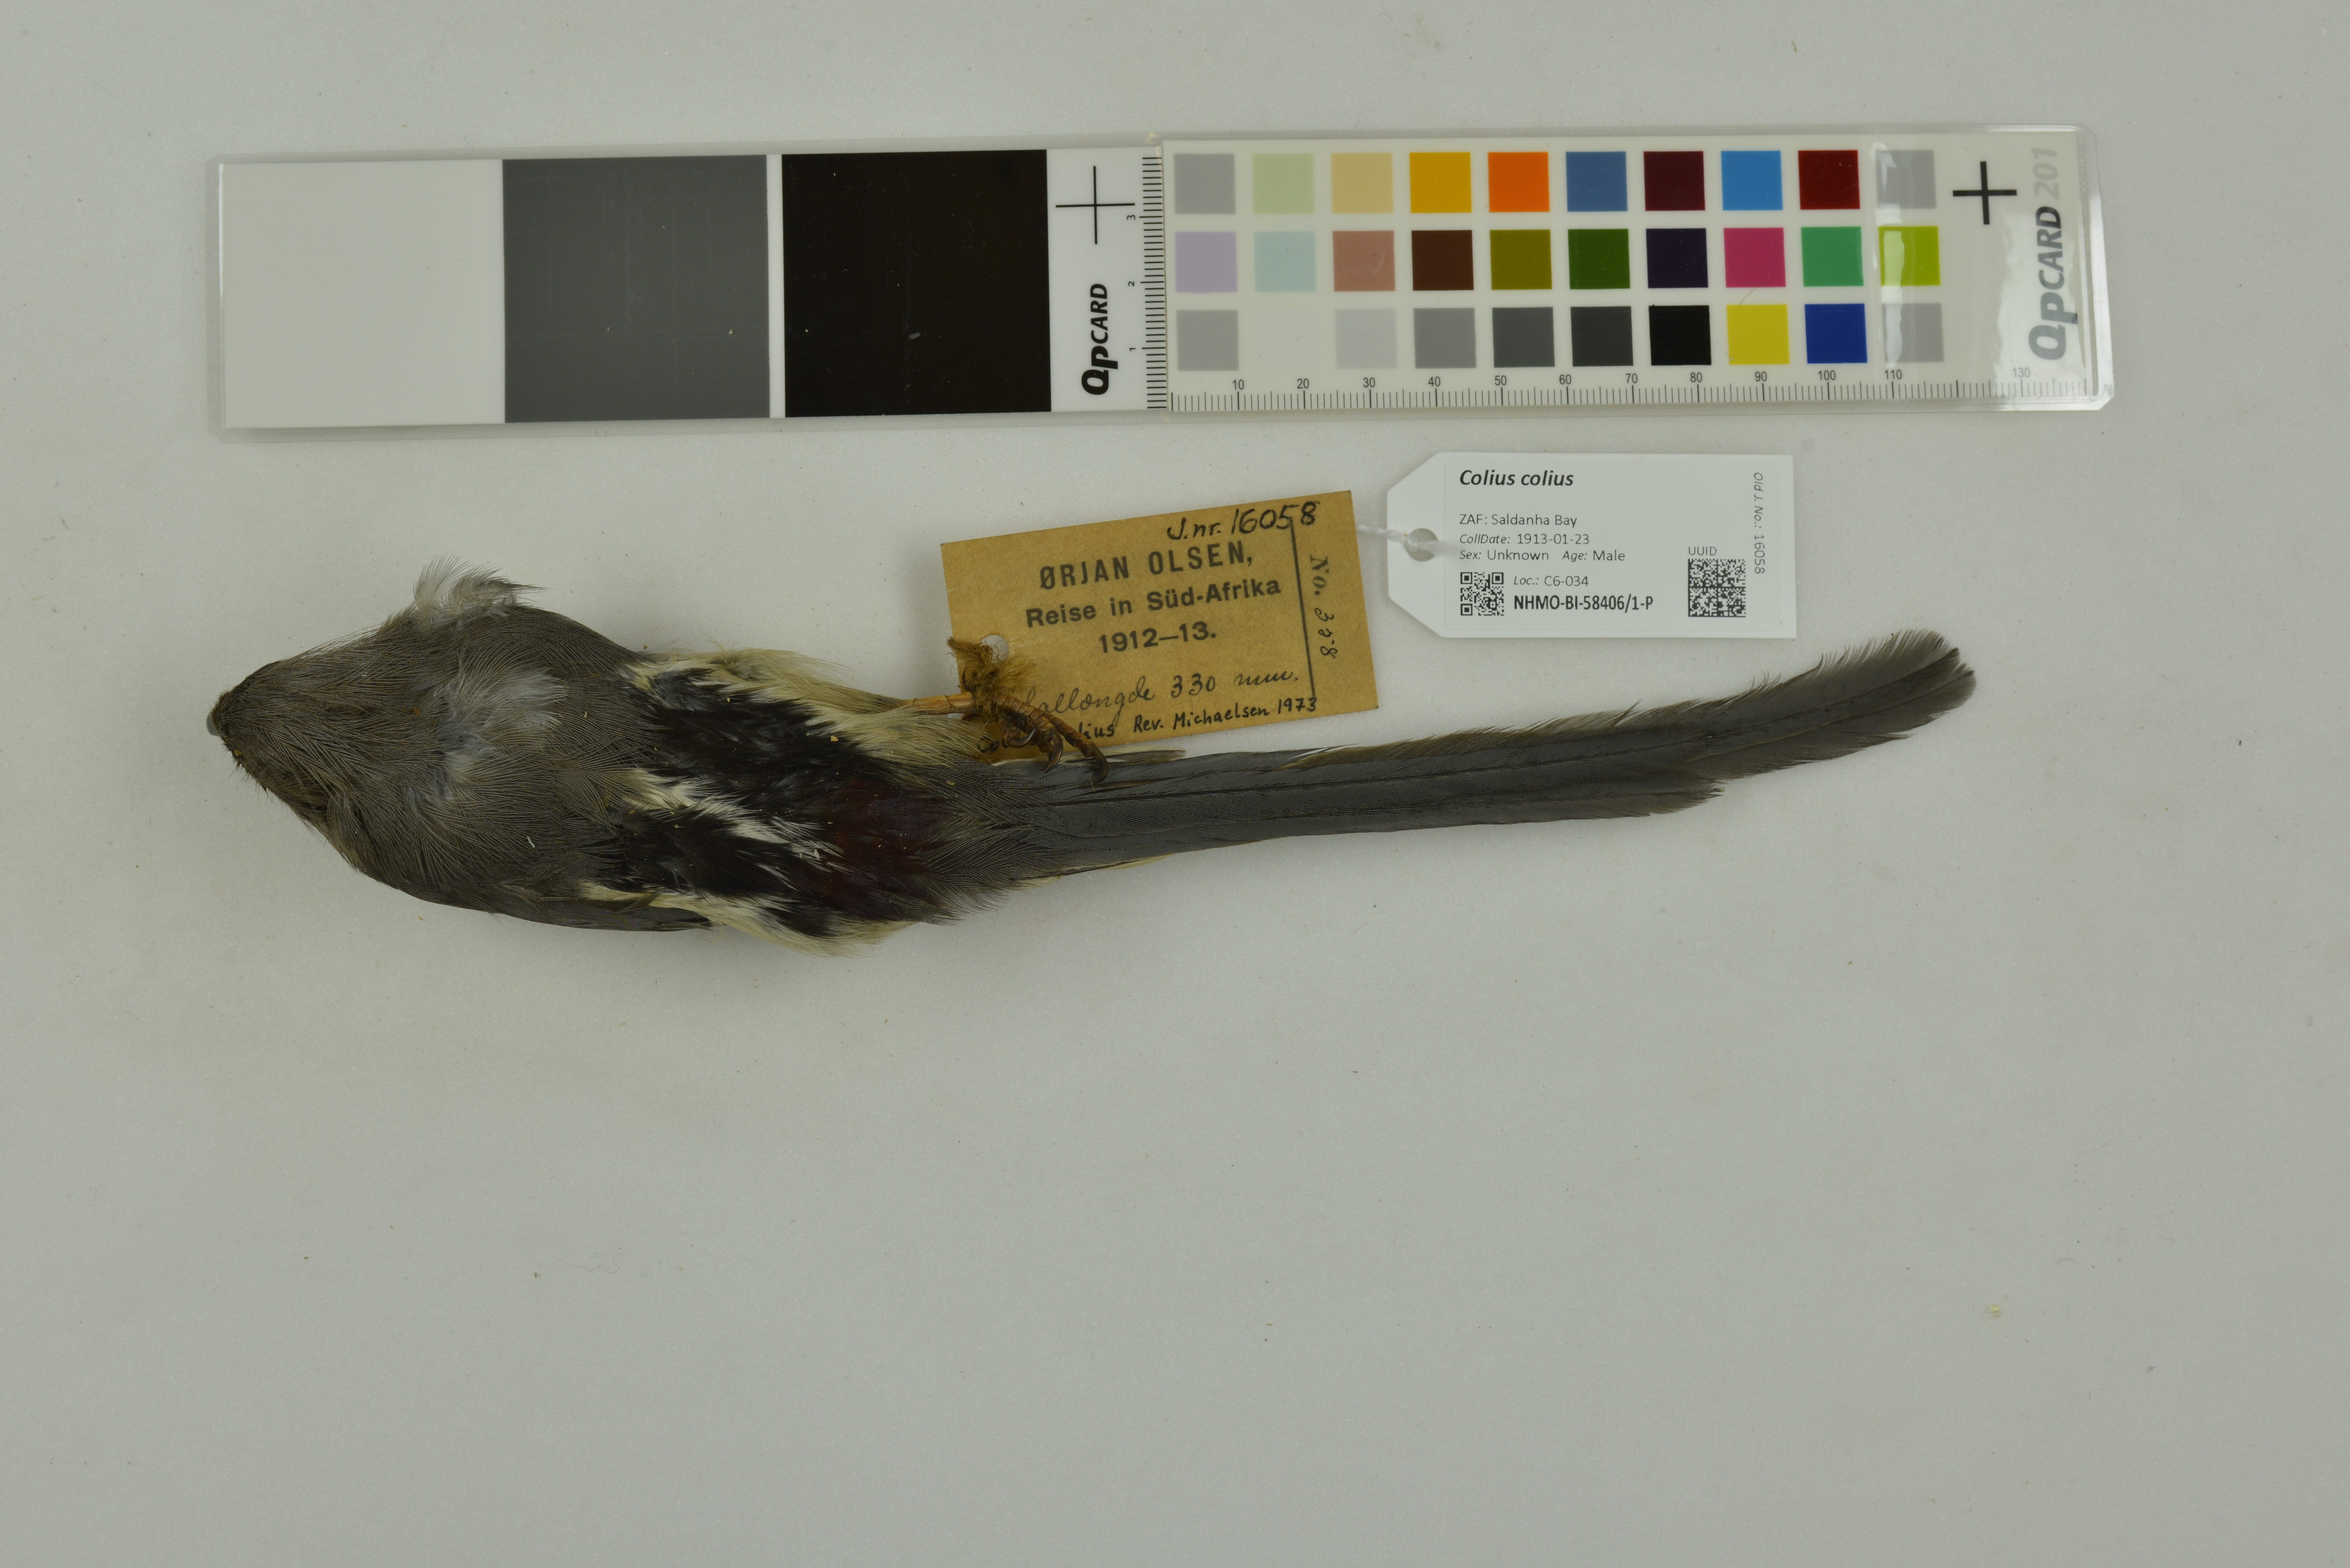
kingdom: Animalia
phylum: Chordata
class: Aves
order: Coliiformes
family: Coliidae
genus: Colius
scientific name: Colius colius
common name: White-backed mousebird
